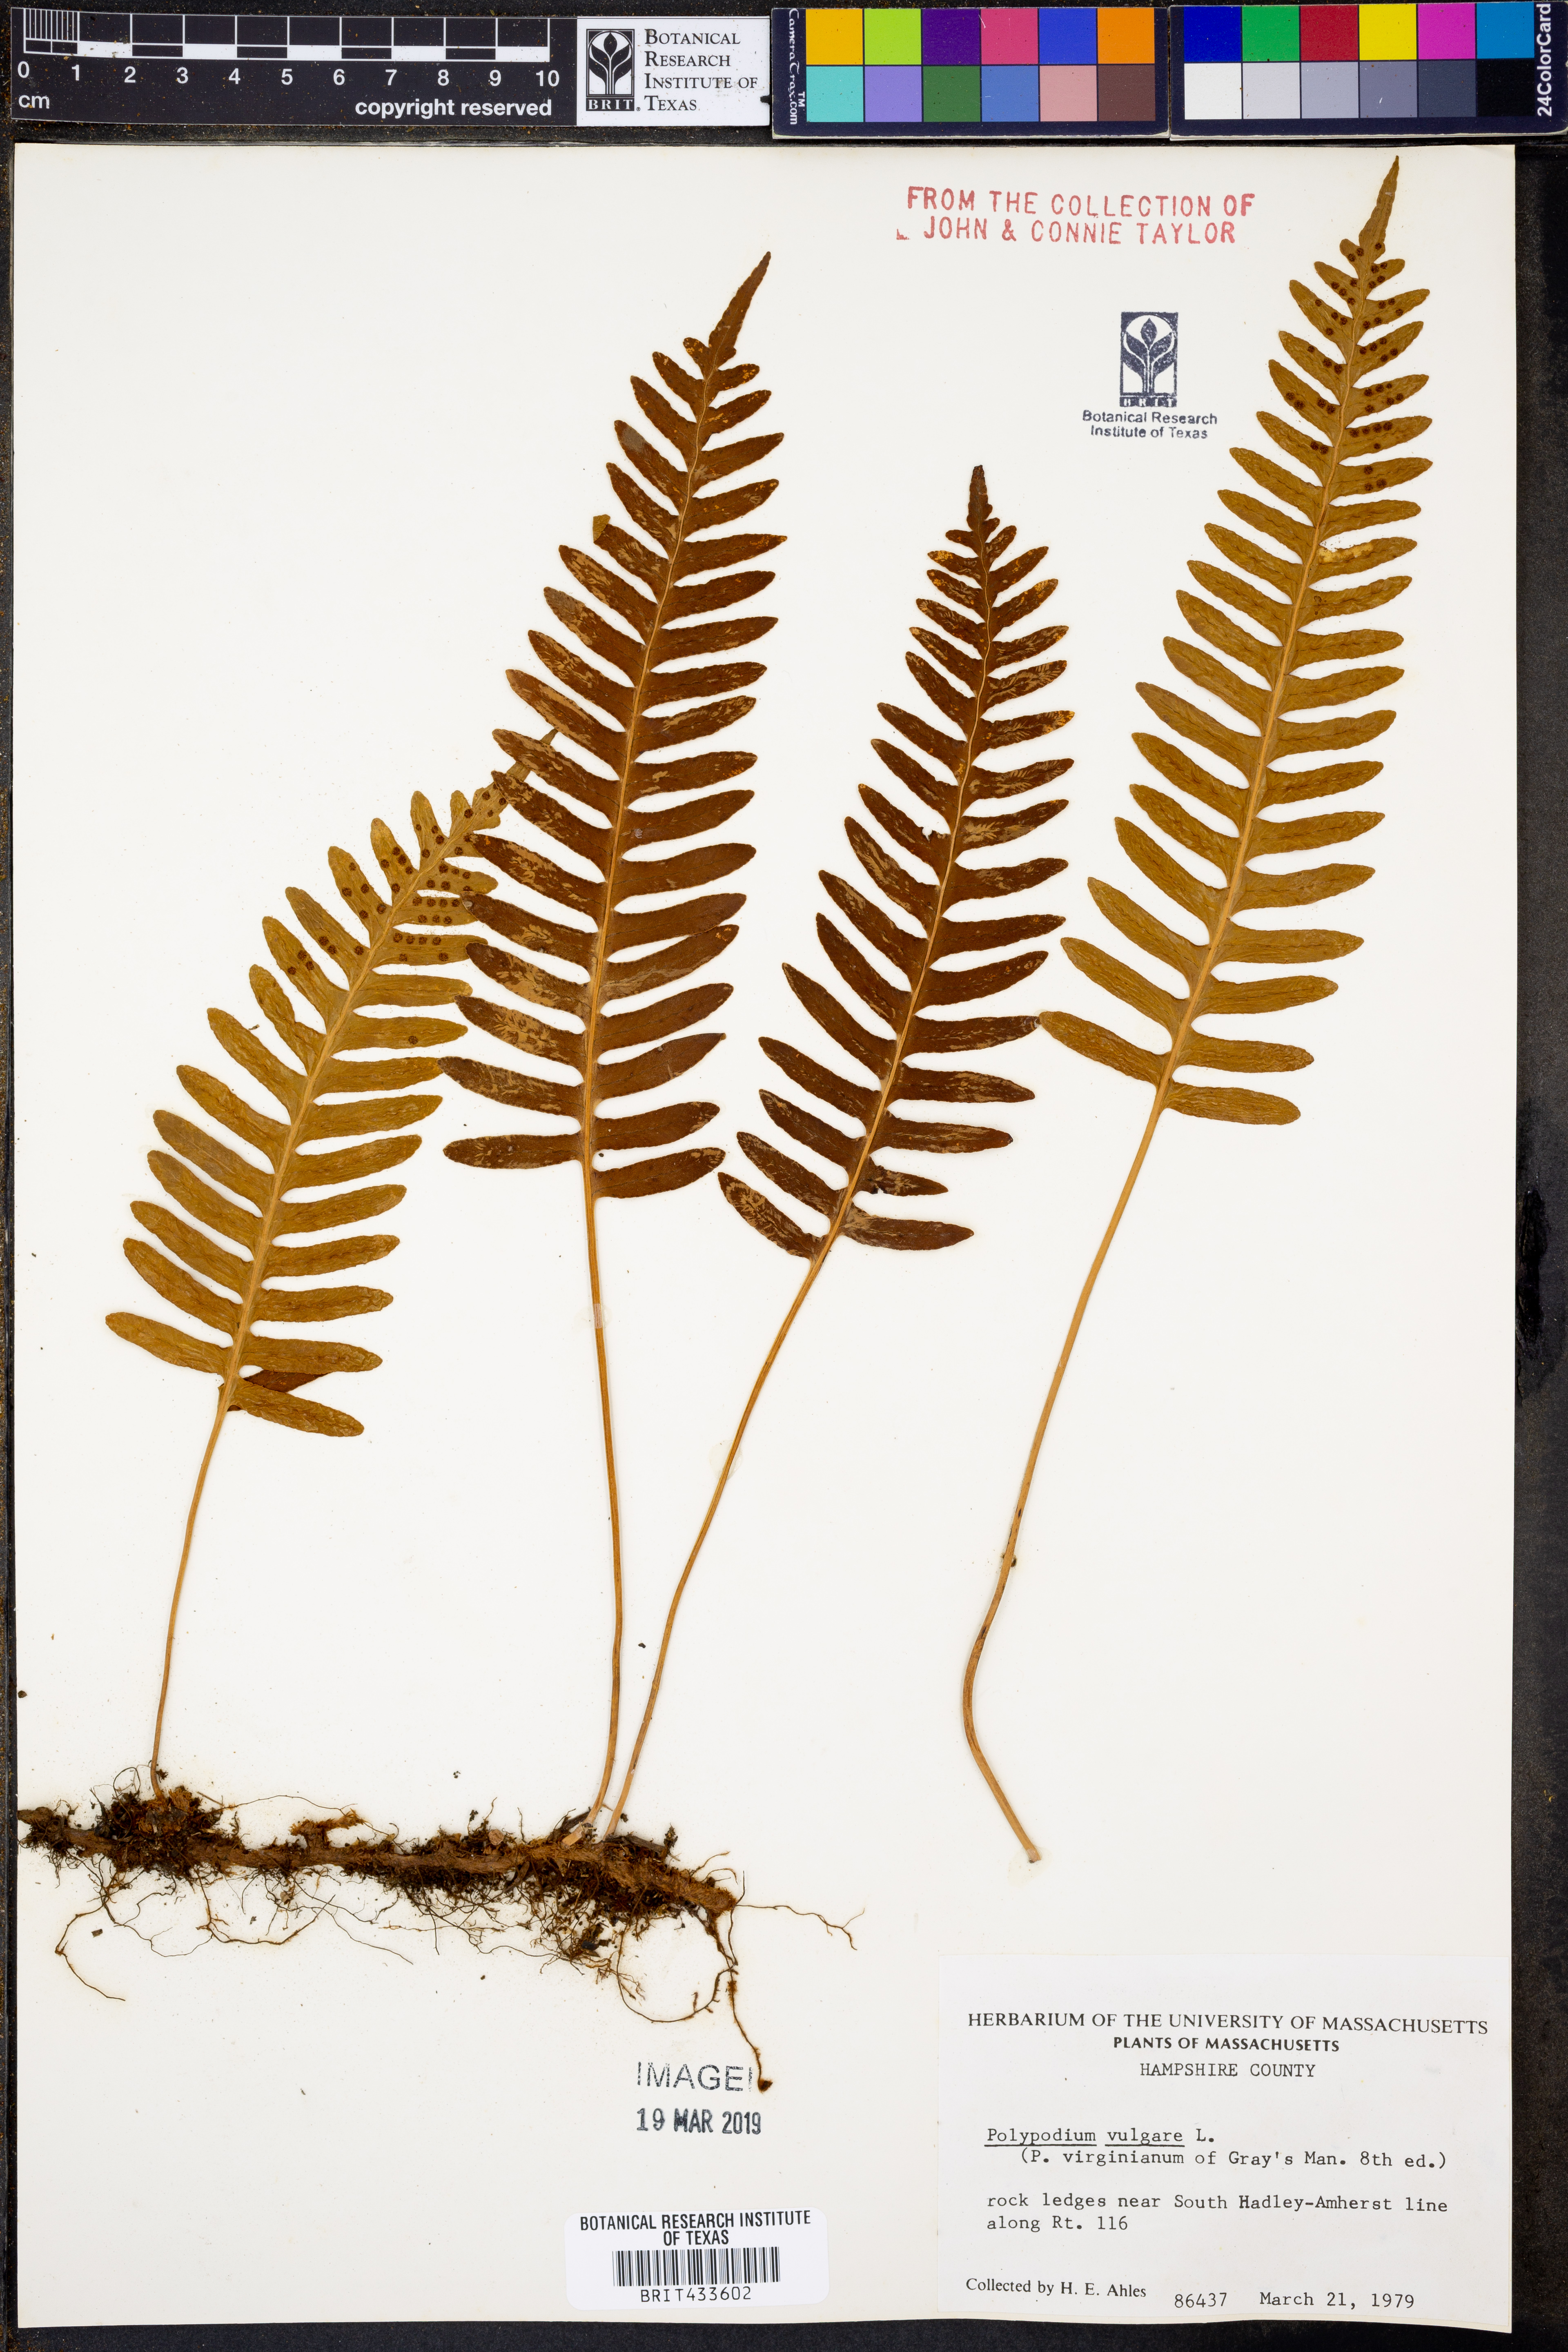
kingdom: Plantae
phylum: Tracheophyta
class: Polypodiopsida
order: Polypodiales
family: Polypodiaceae
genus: Polypodium
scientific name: Polypodium vulgare
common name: Common polypody
